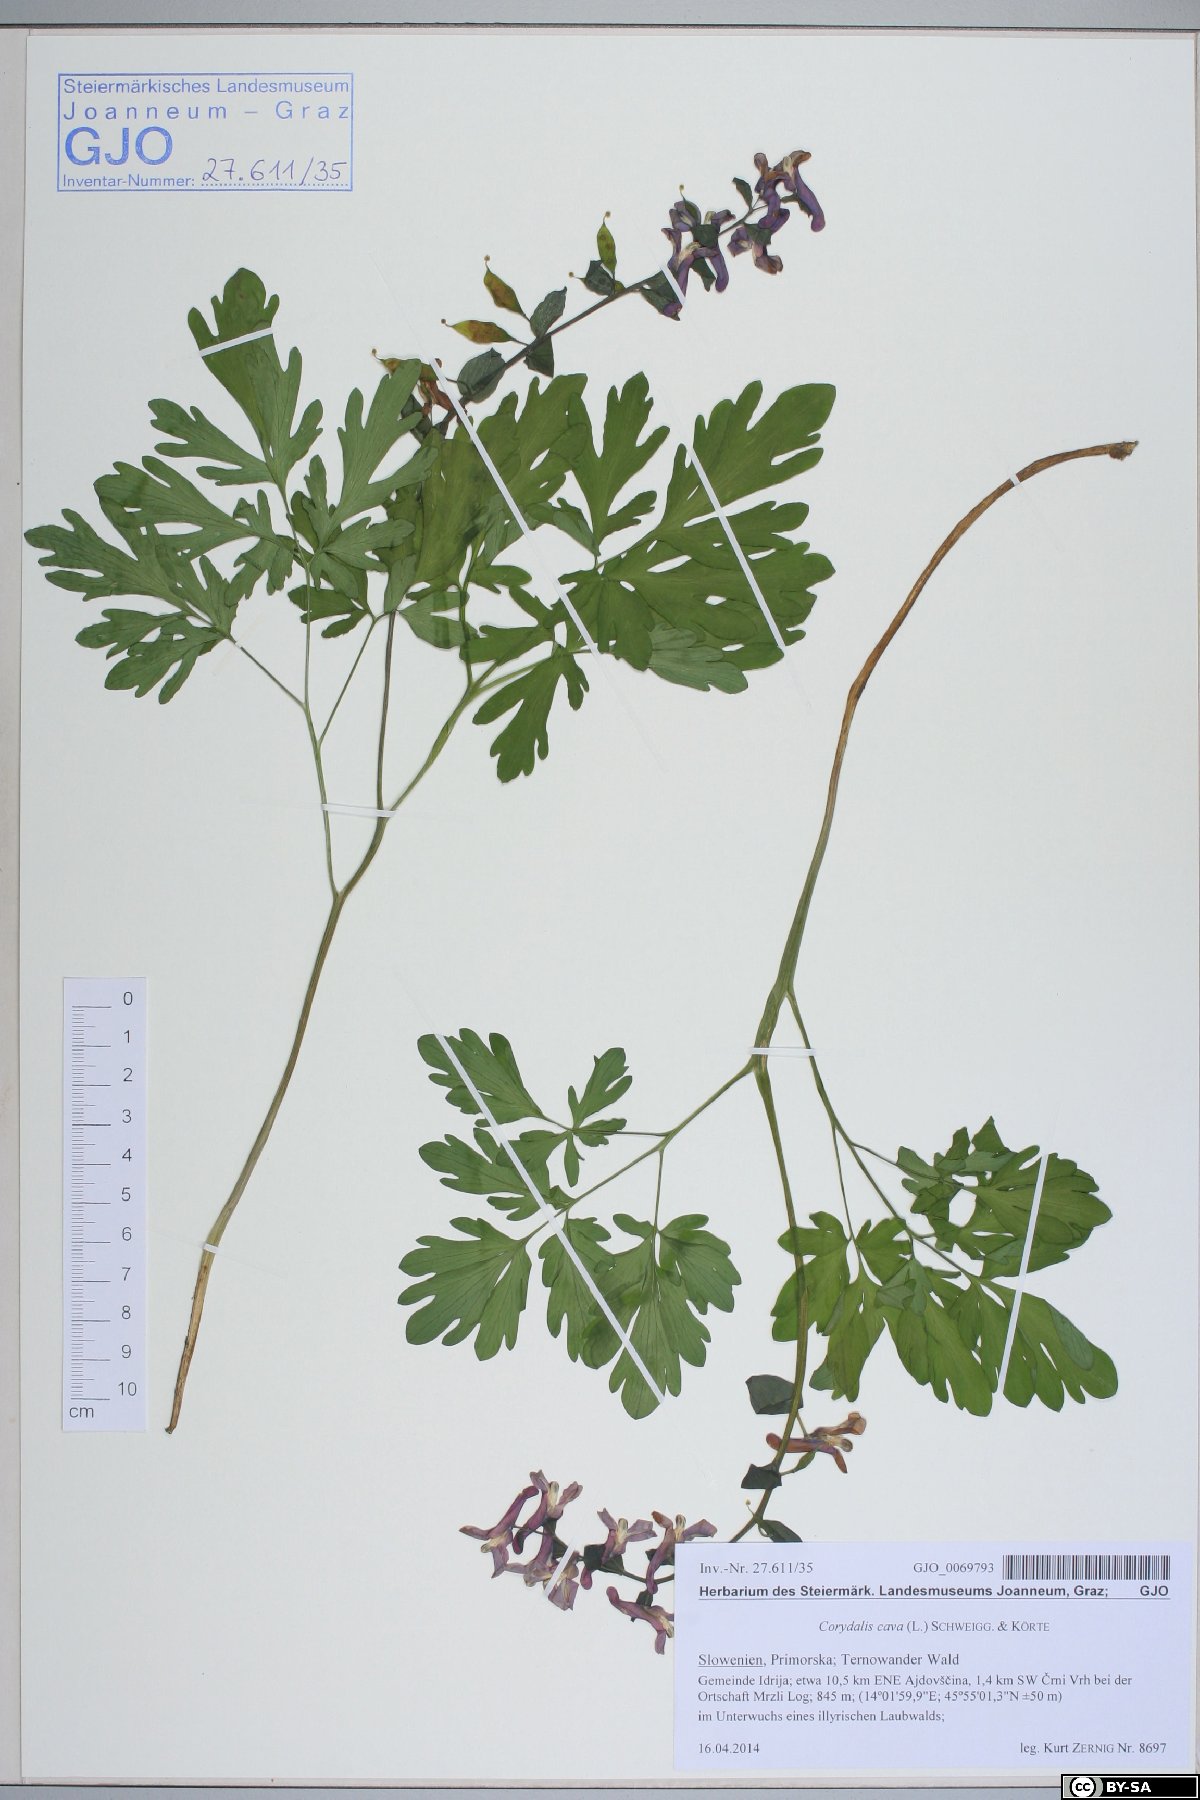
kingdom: Plantae
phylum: Tracheophyta
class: Magnoliopsida
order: Ranunculales
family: Papaveraceae
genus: Corydalis
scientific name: Corydalis cava
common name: Hollowroot
